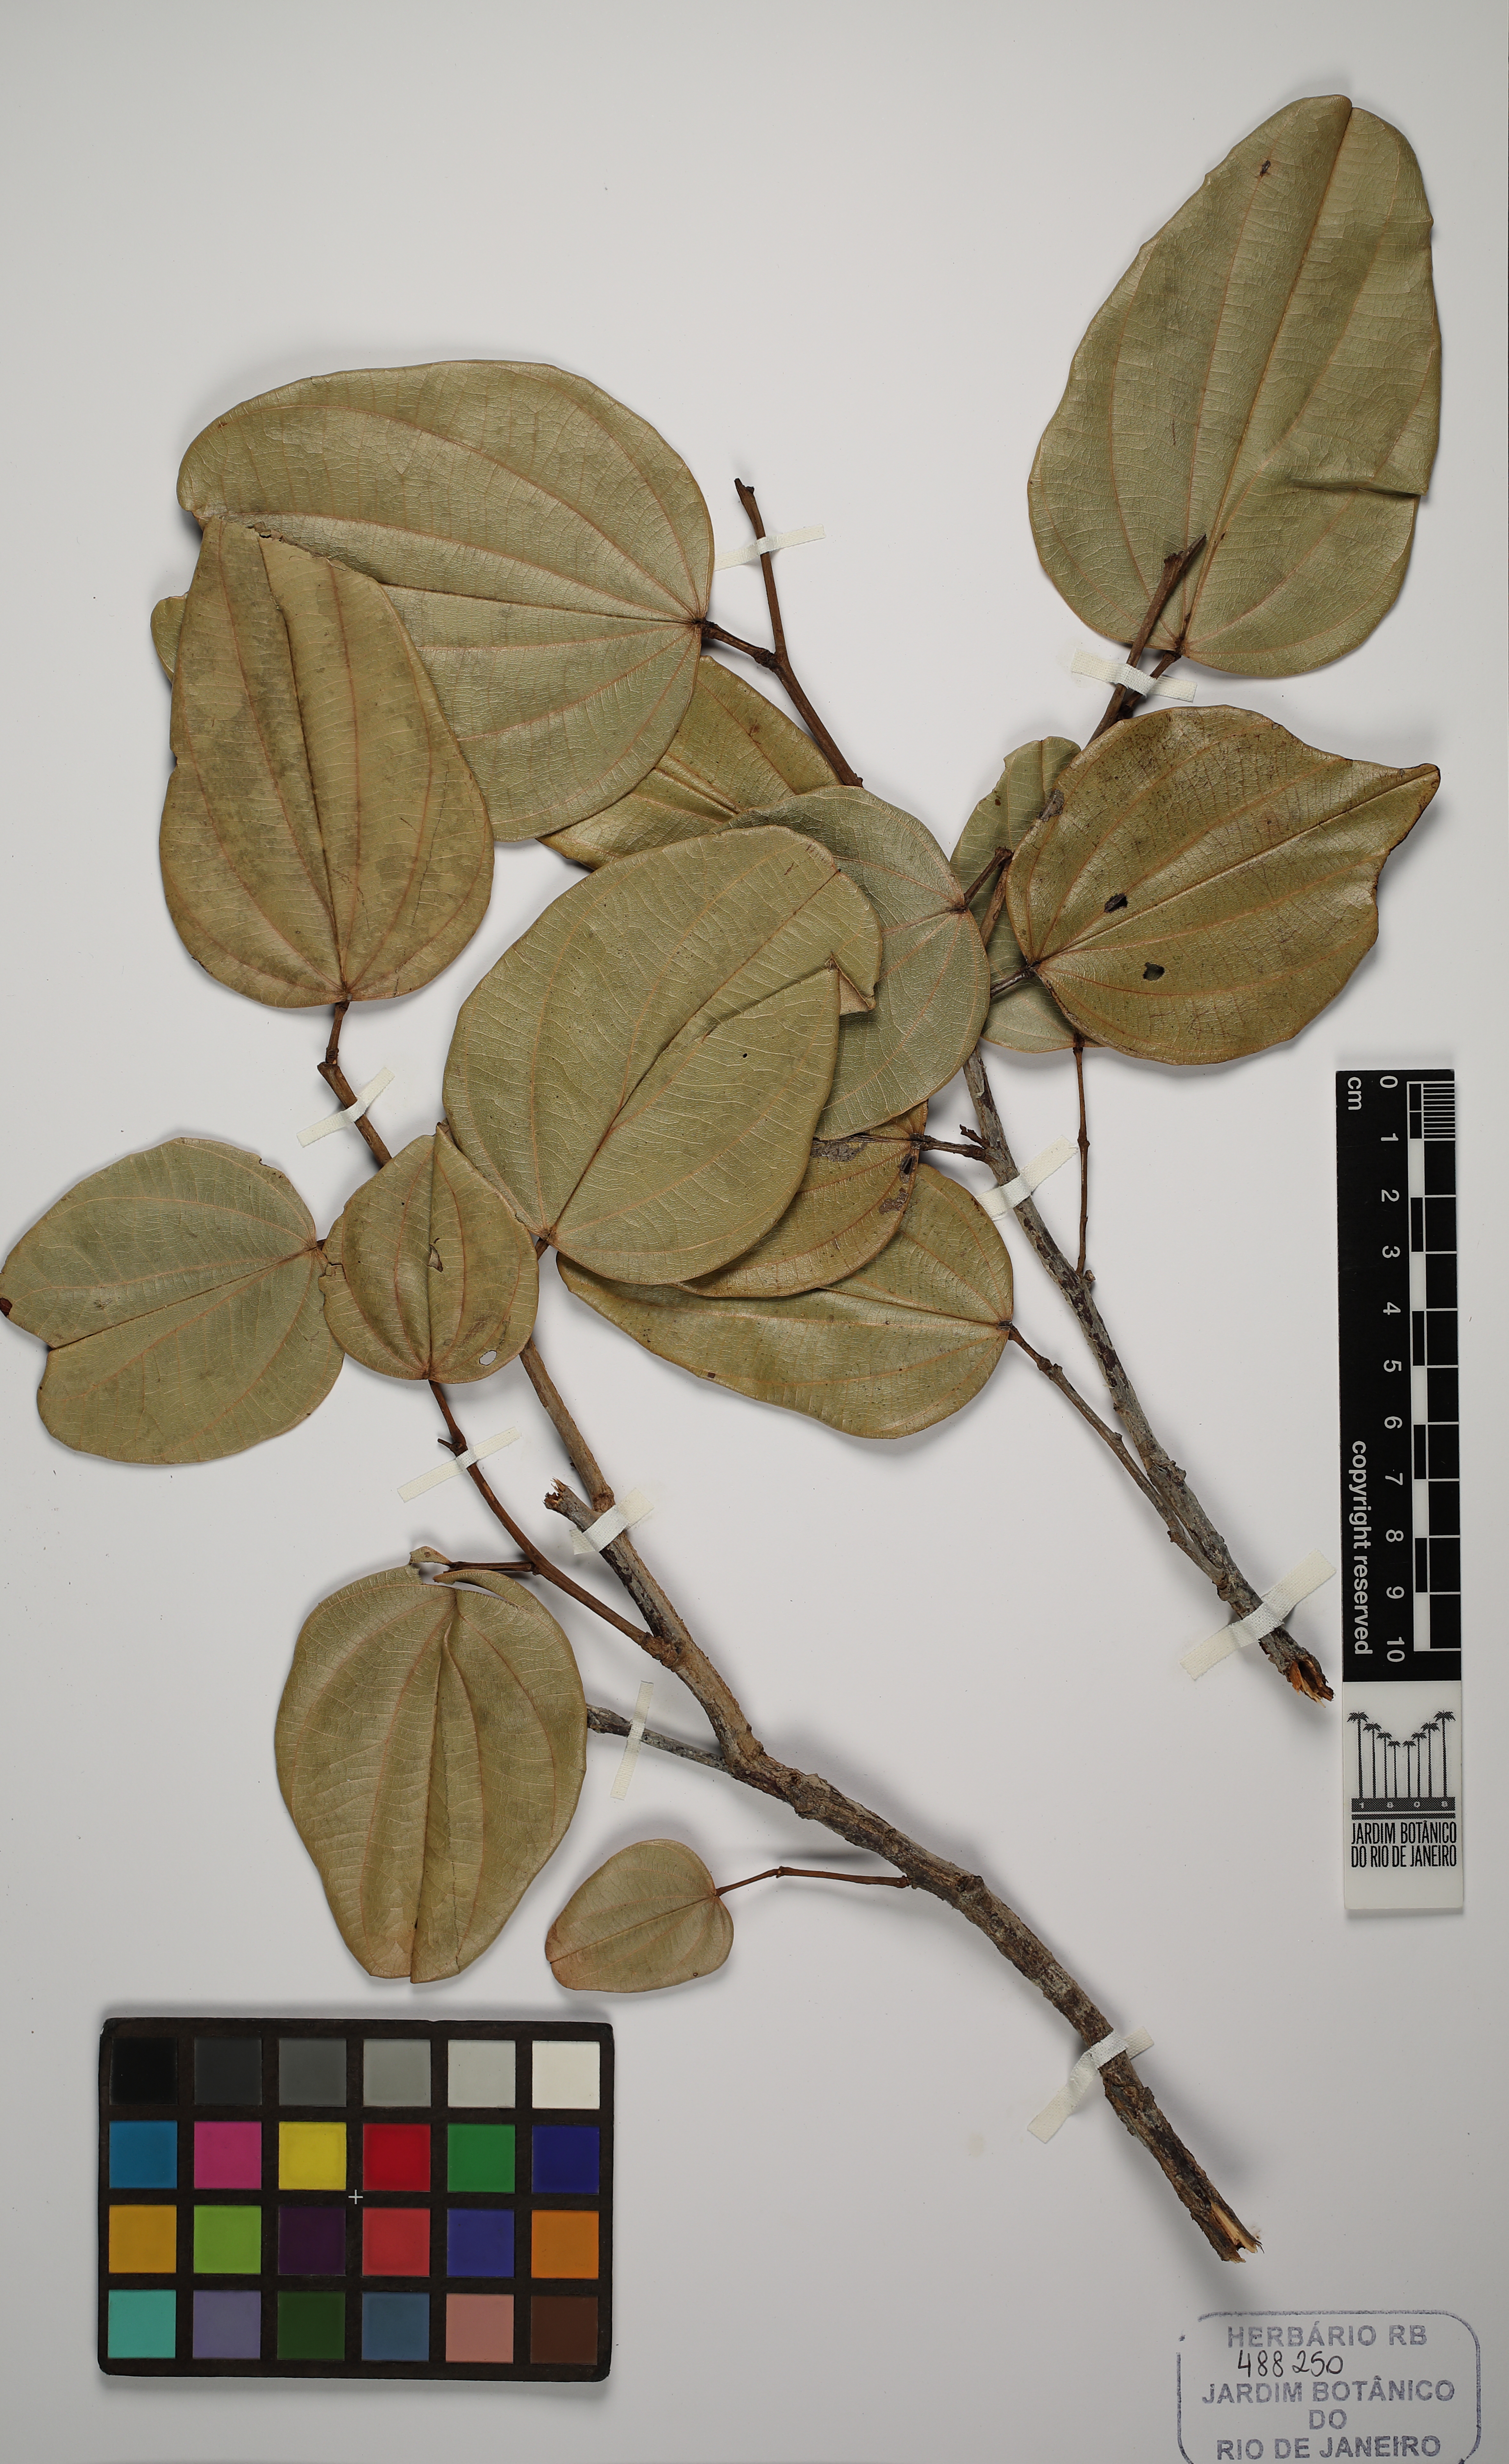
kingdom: Plantae
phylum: Tracheophyta
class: Magnoliopsida
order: Fabales
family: Fabaceae
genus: Bauhinia
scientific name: Bauhinia corifolia
